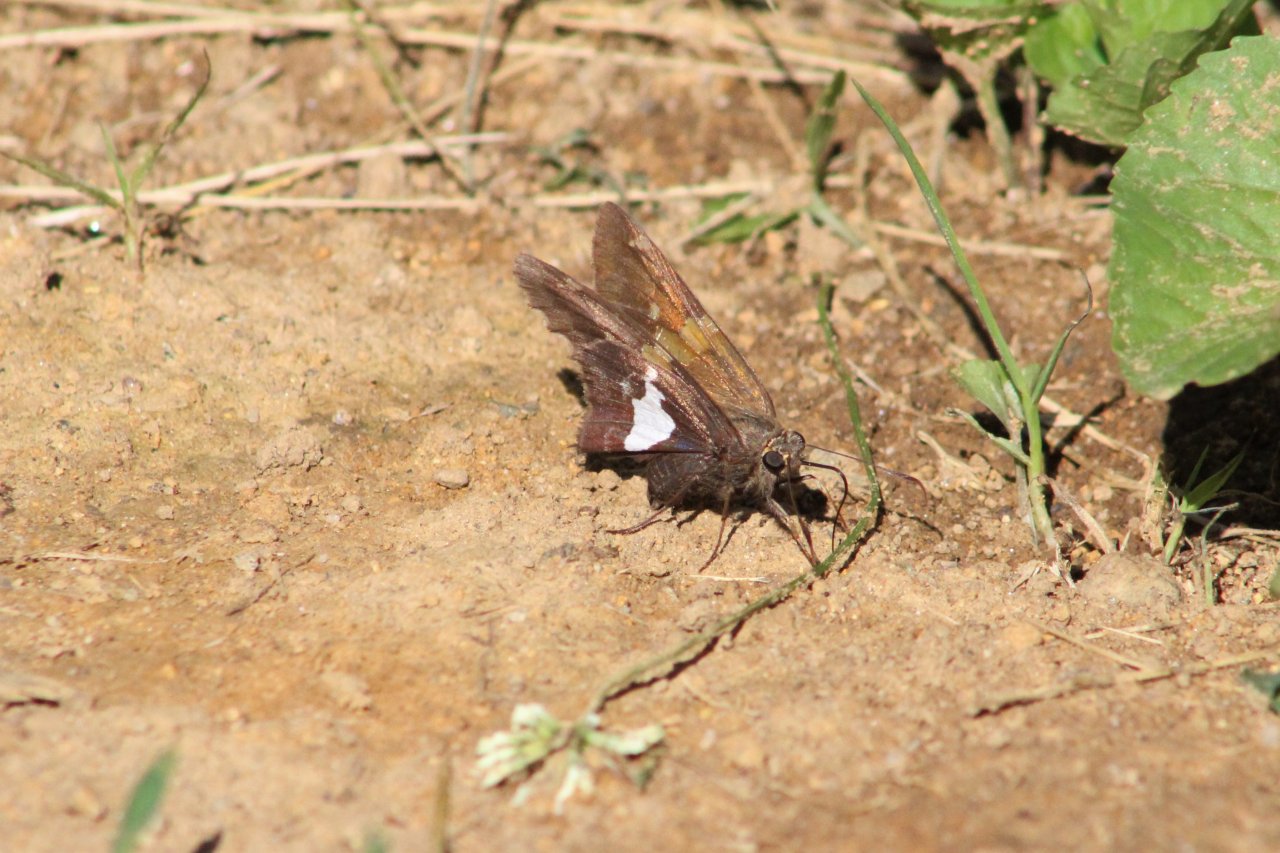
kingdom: Animalia
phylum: Arthropoda
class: Insecta
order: Lepidoptera
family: Hesperiidae
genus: Epargyreus
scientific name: Epargyreus clarus
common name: Silver-spotted Skipper
